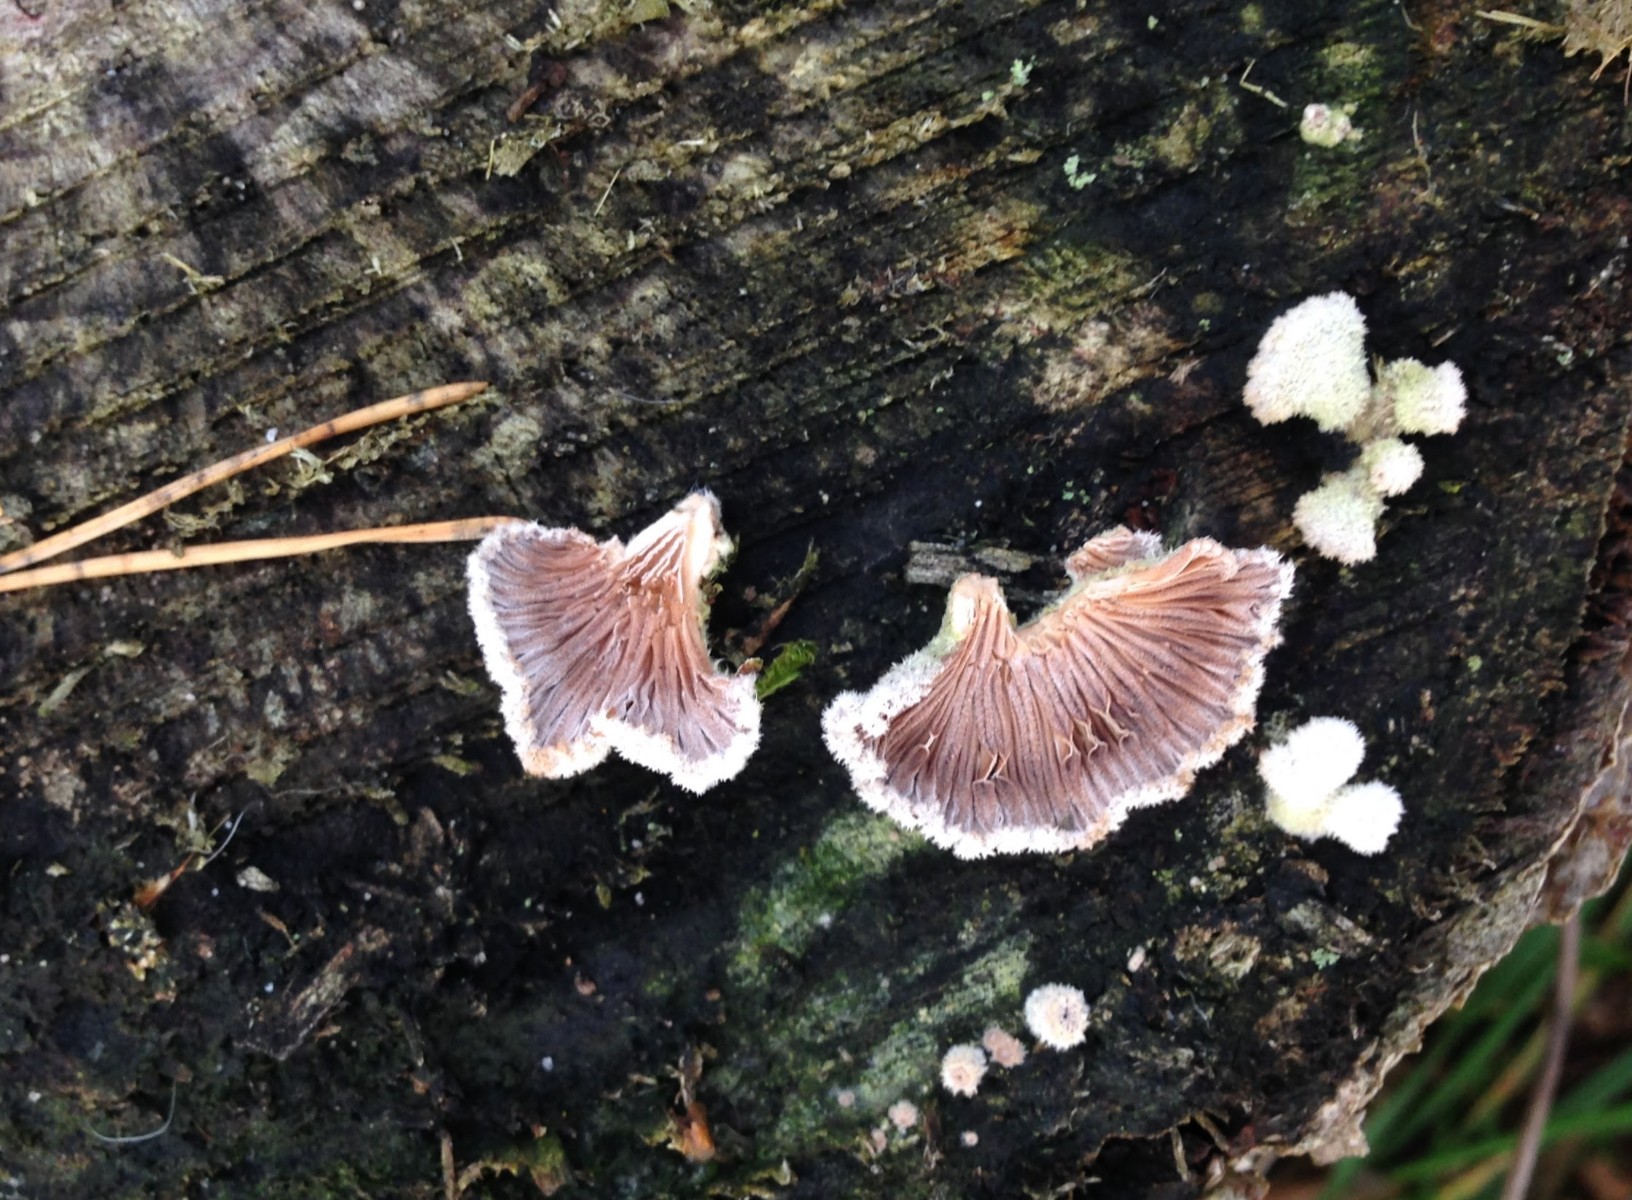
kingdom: Fungi
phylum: Basidiomycota
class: Agaricomycetes
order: Agaricales
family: Schizophyllaceae
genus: Schizophyllum
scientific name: Schizophyllum commune
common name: kløvblad
